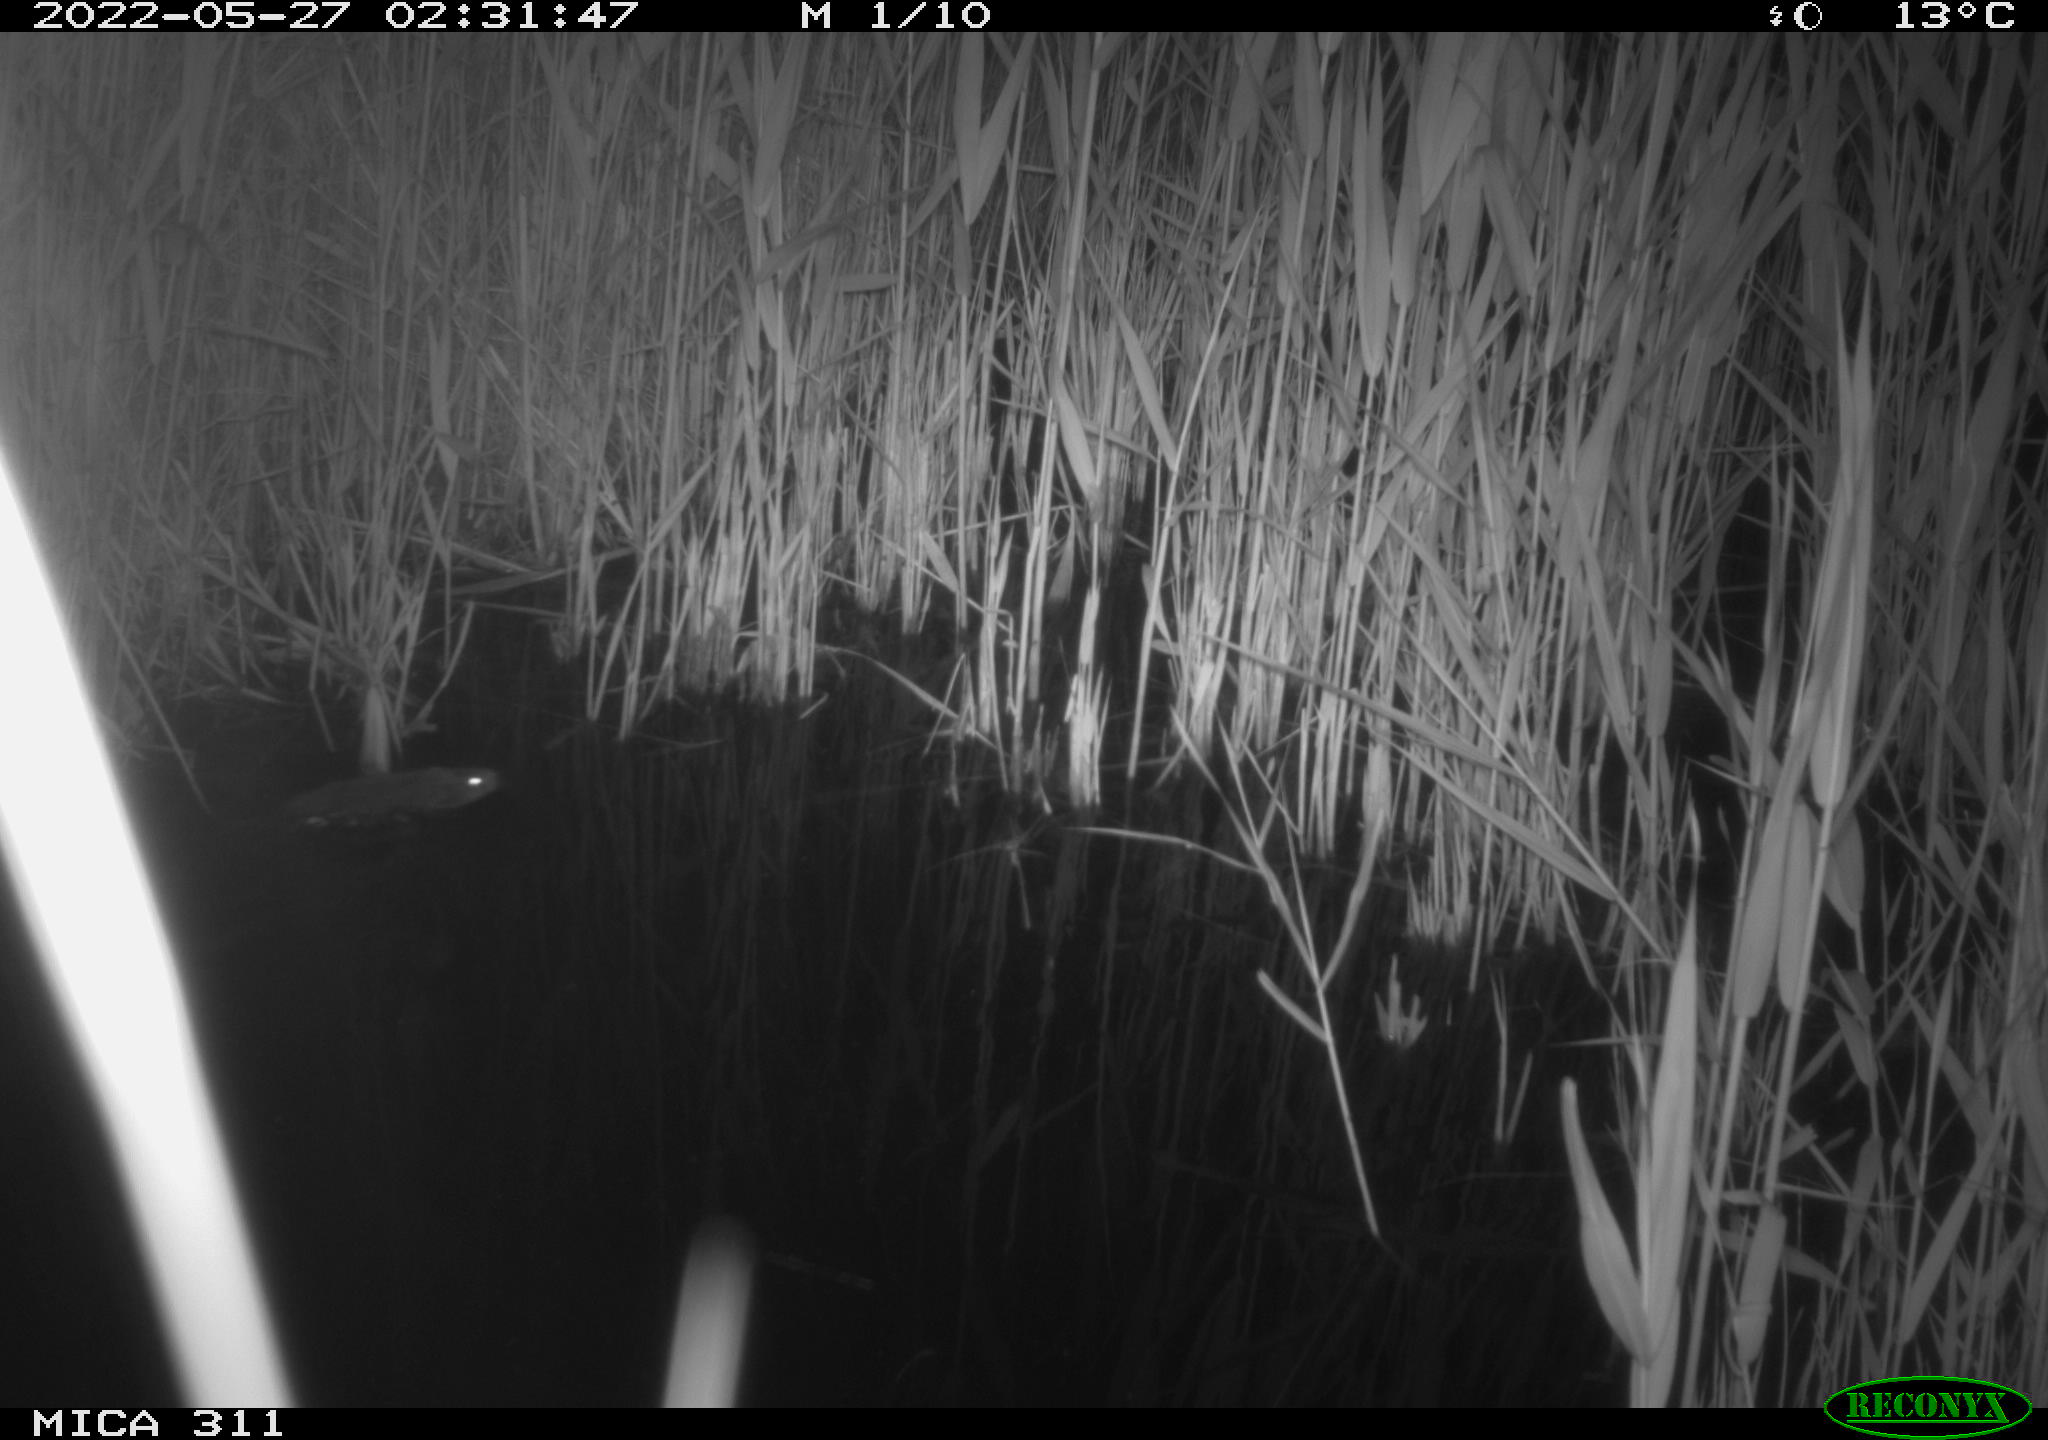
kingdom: Animalia
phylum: Chordata
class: Mammalia
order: Rodentia
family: Cricetidae
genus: Ondatra
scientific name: Ondatra zibethicus
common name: Muskrat
